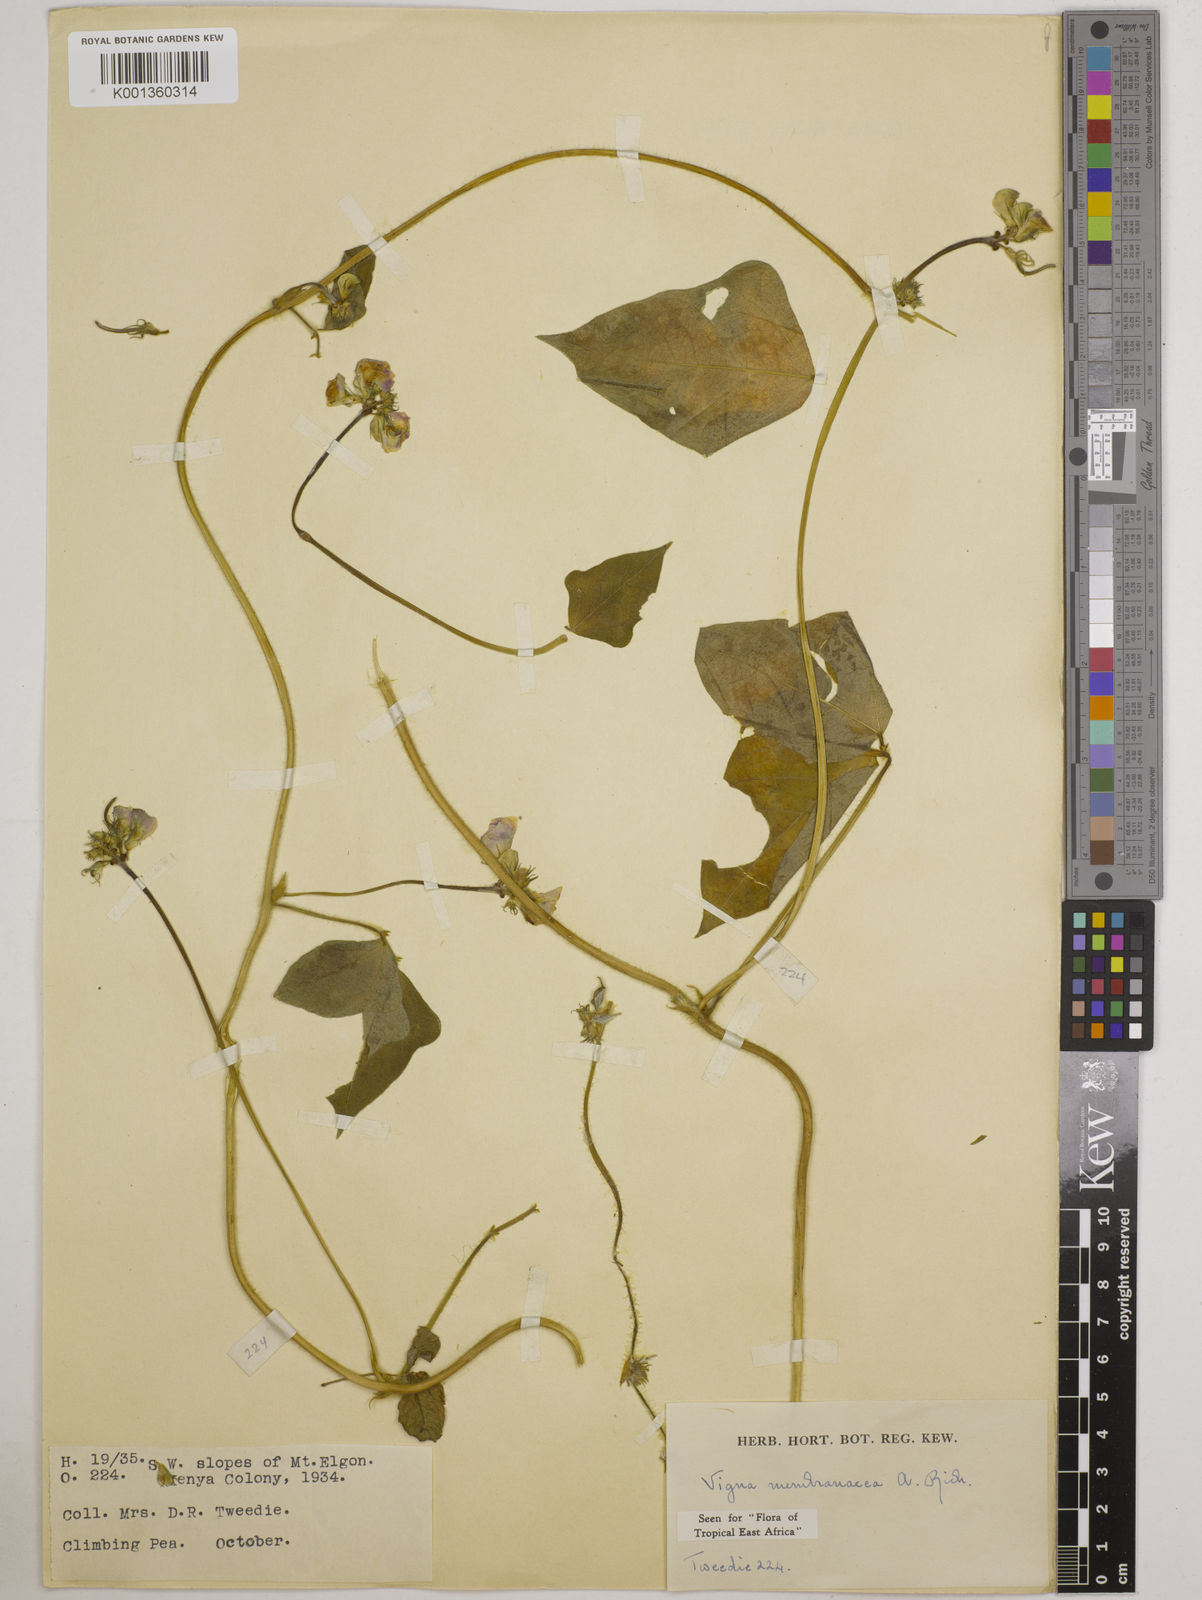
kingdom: Plantae
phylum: Tracheophyta
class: Magnoliopsida
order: Fabales
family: Fabaceae
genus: Vigna
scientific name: Vigna membranacea
